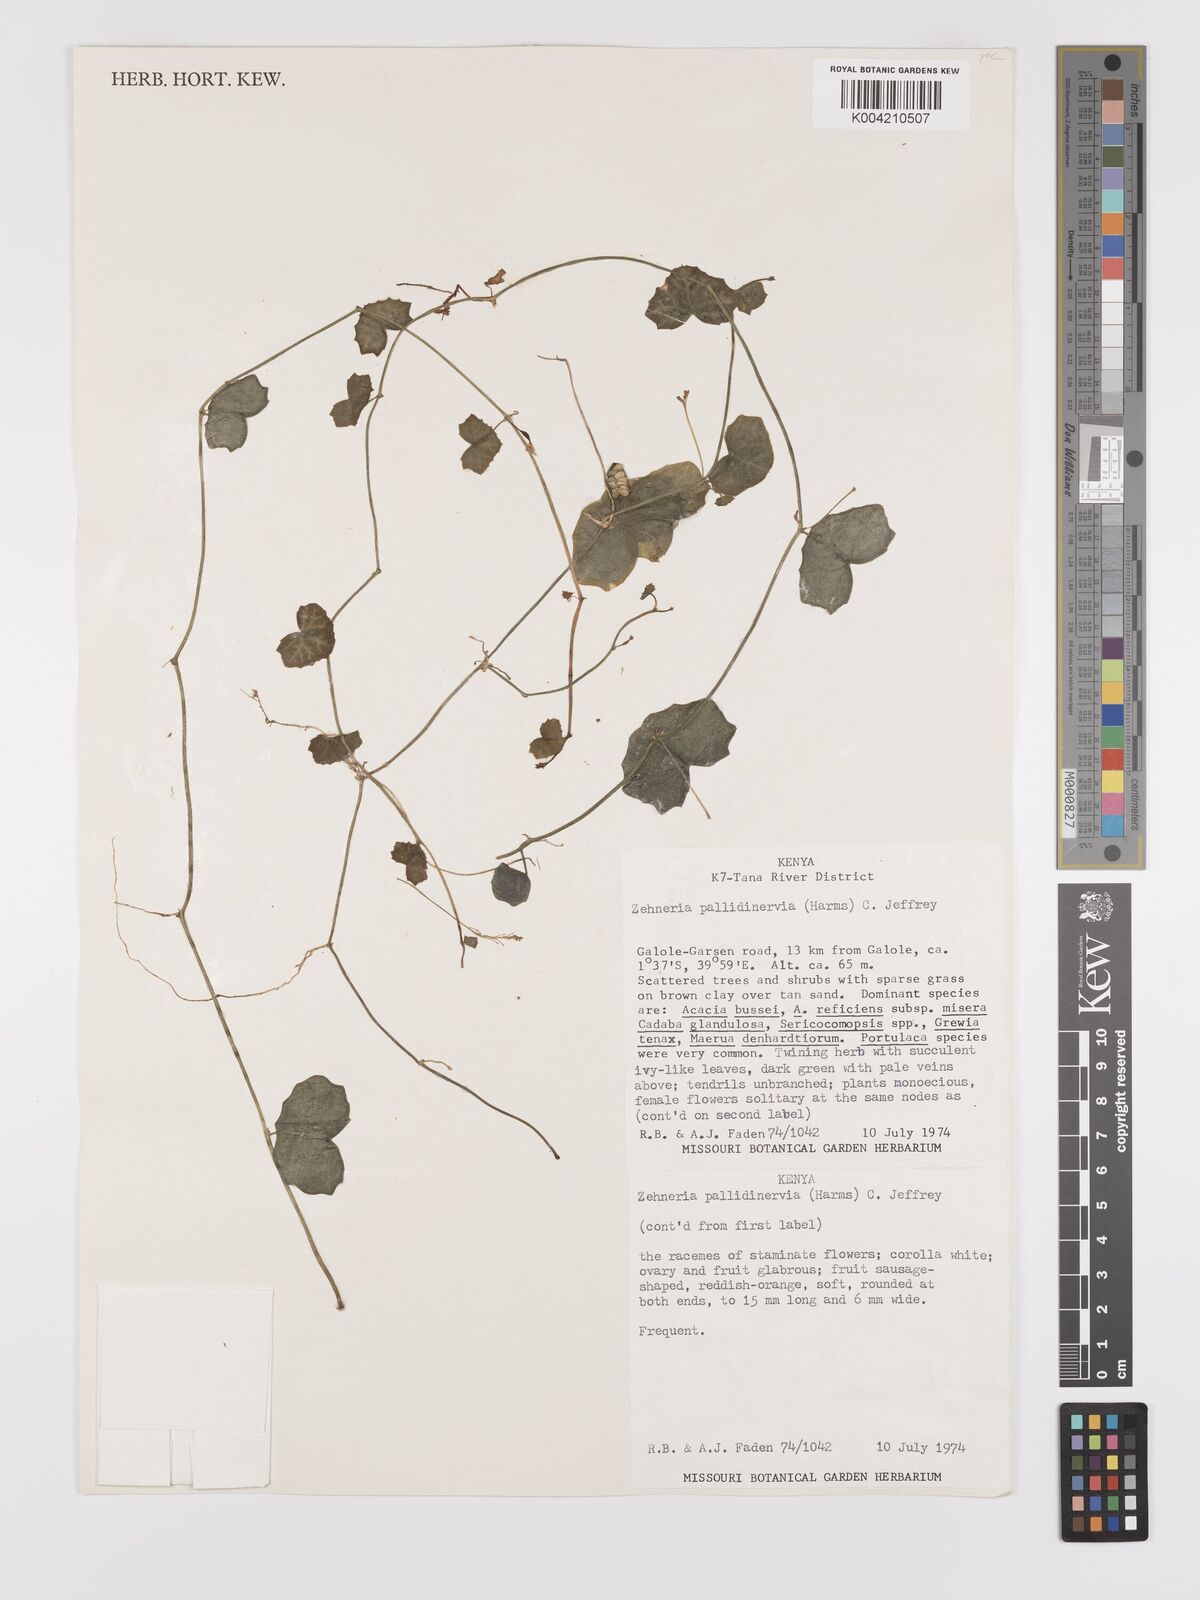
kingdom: Plantae
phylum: Tracheophyta
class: Magnoliopsida
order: Cucurbitales
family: Cucurbitaceae
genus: Zehneria
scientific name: Zehneria pallidinervia
